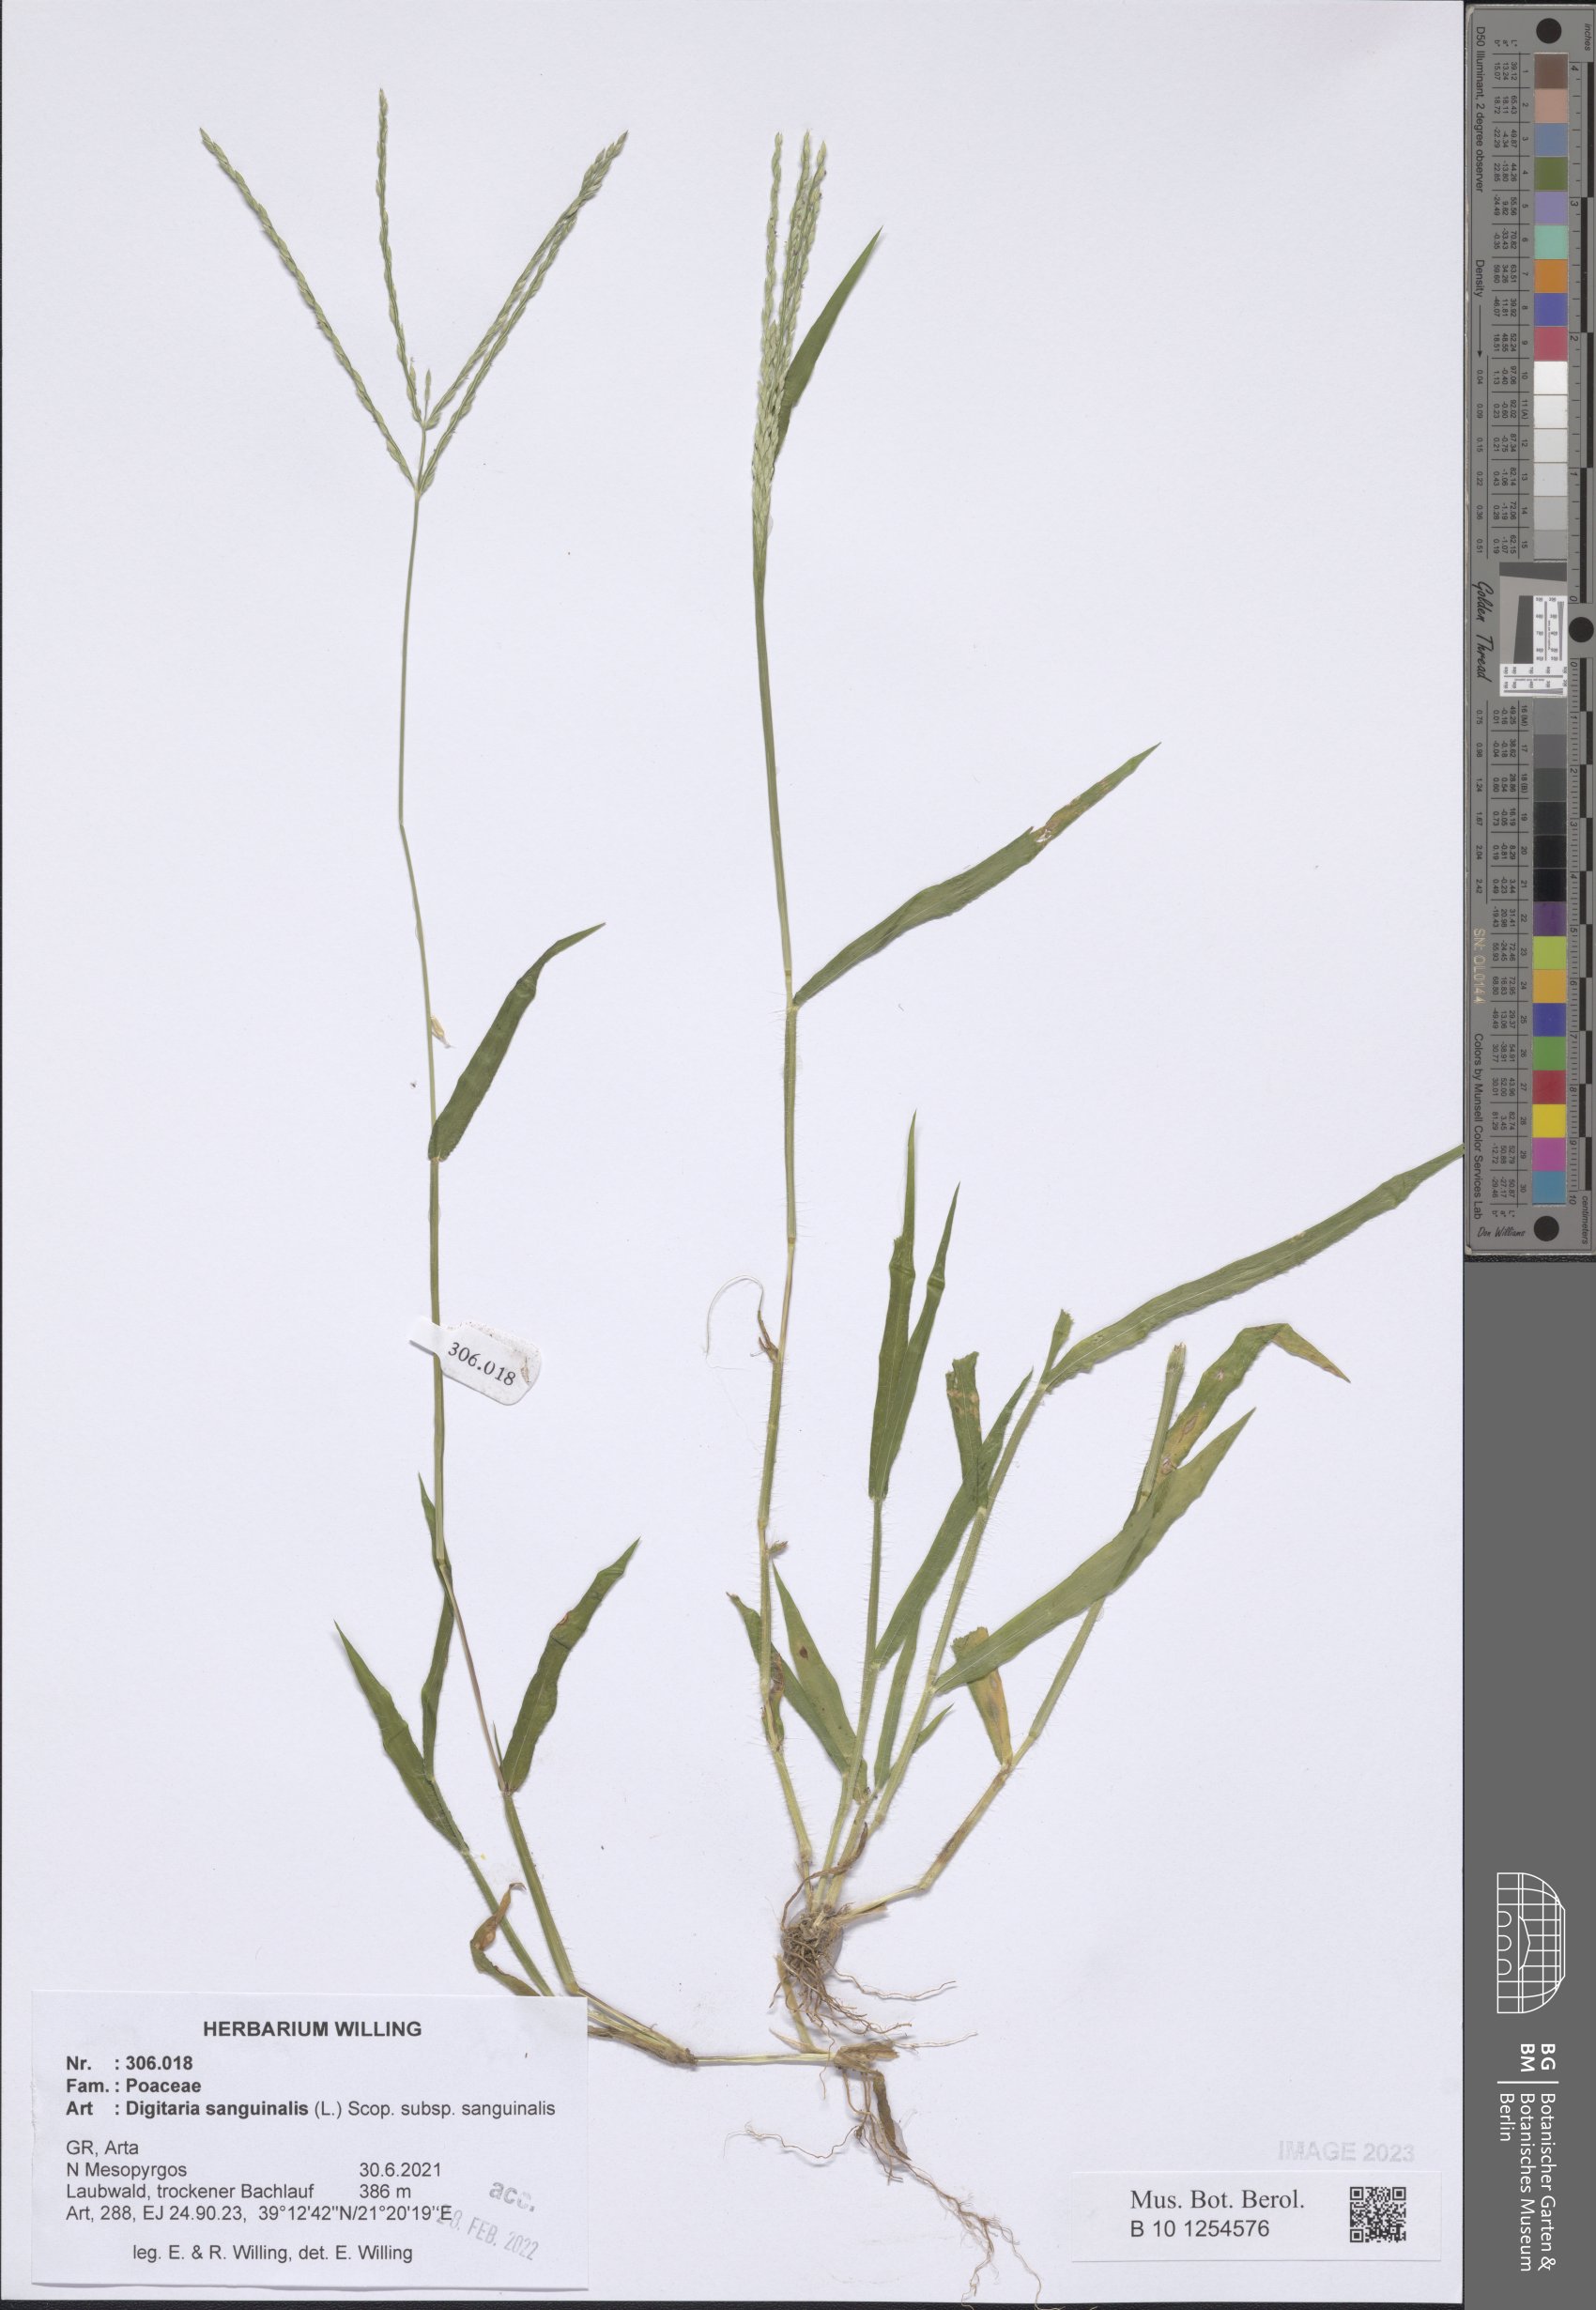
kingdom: Plantae
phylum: Tracheophyta
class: Liliopsida
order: Poales
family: Poaceae
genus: Digitaria
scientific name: Digitaria sanguinalis
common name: Hairy crabgrass
